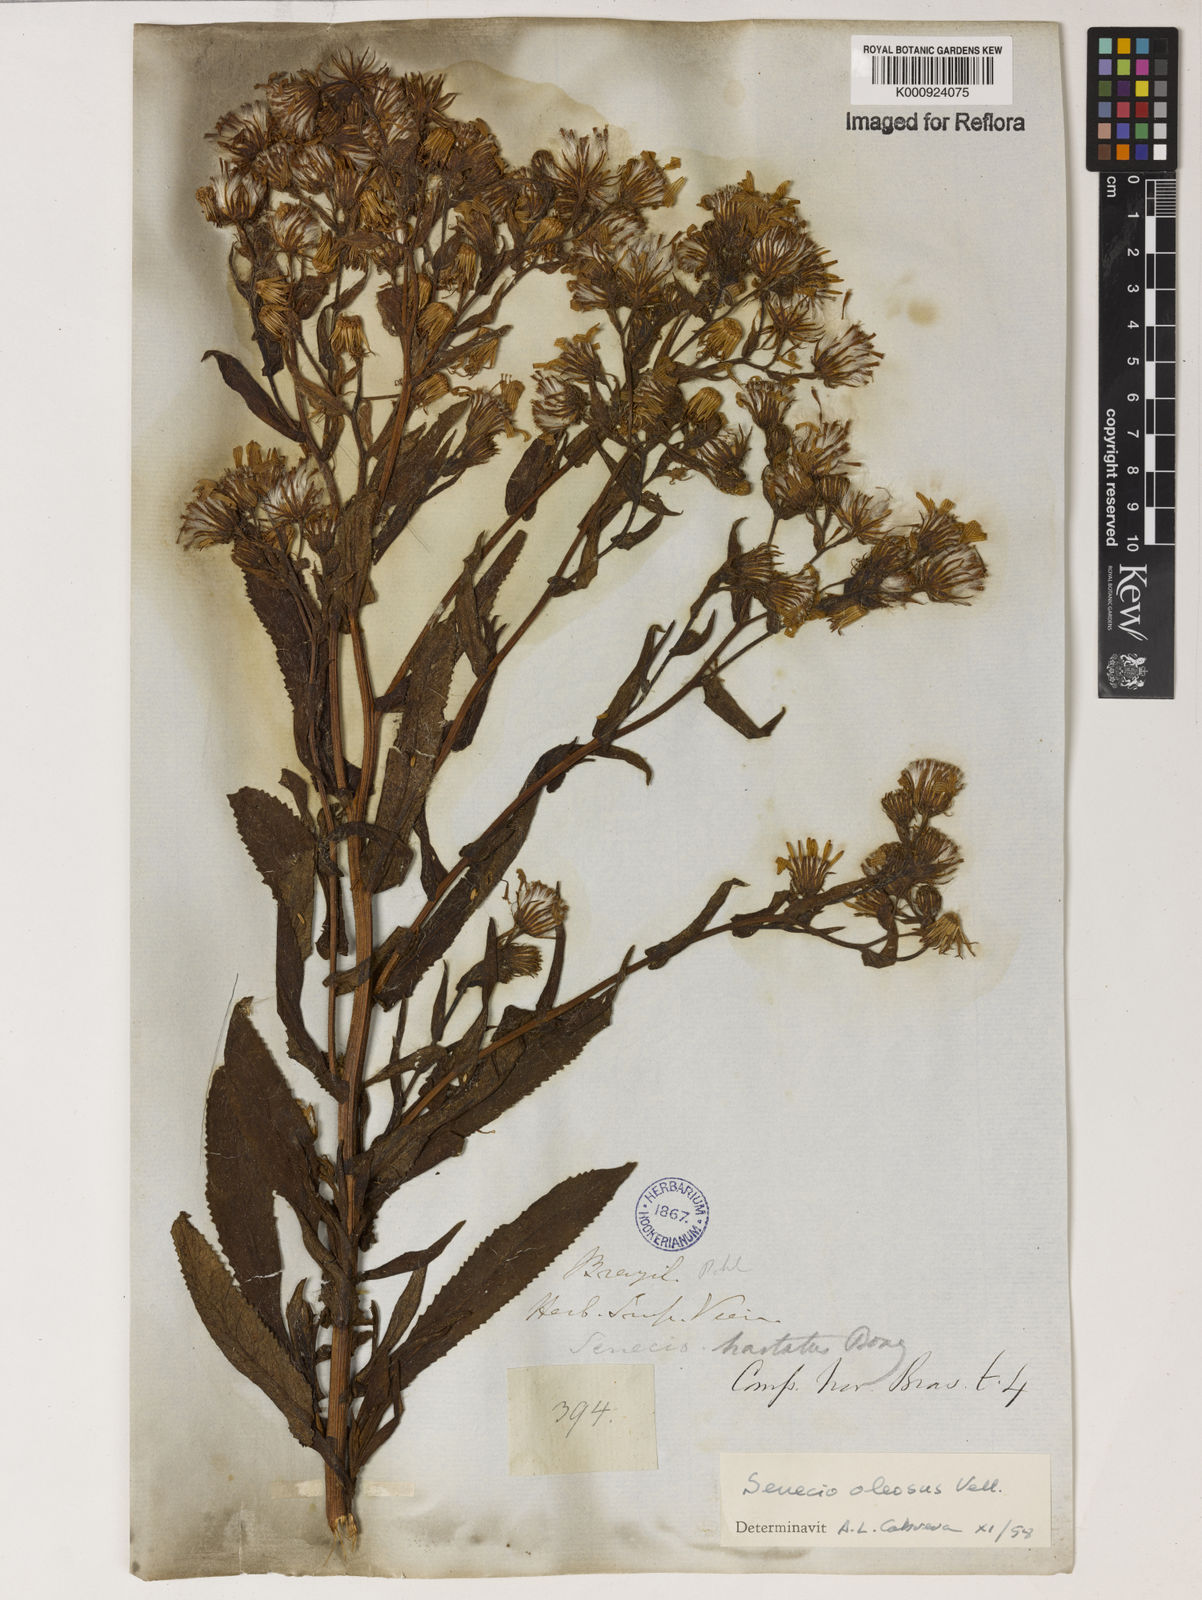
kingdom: Plantae
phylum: Tracheophyta
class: Magnoliopsida
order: Asterales
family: Asteraceae
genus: Senecio
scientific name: Senecio oleosus
